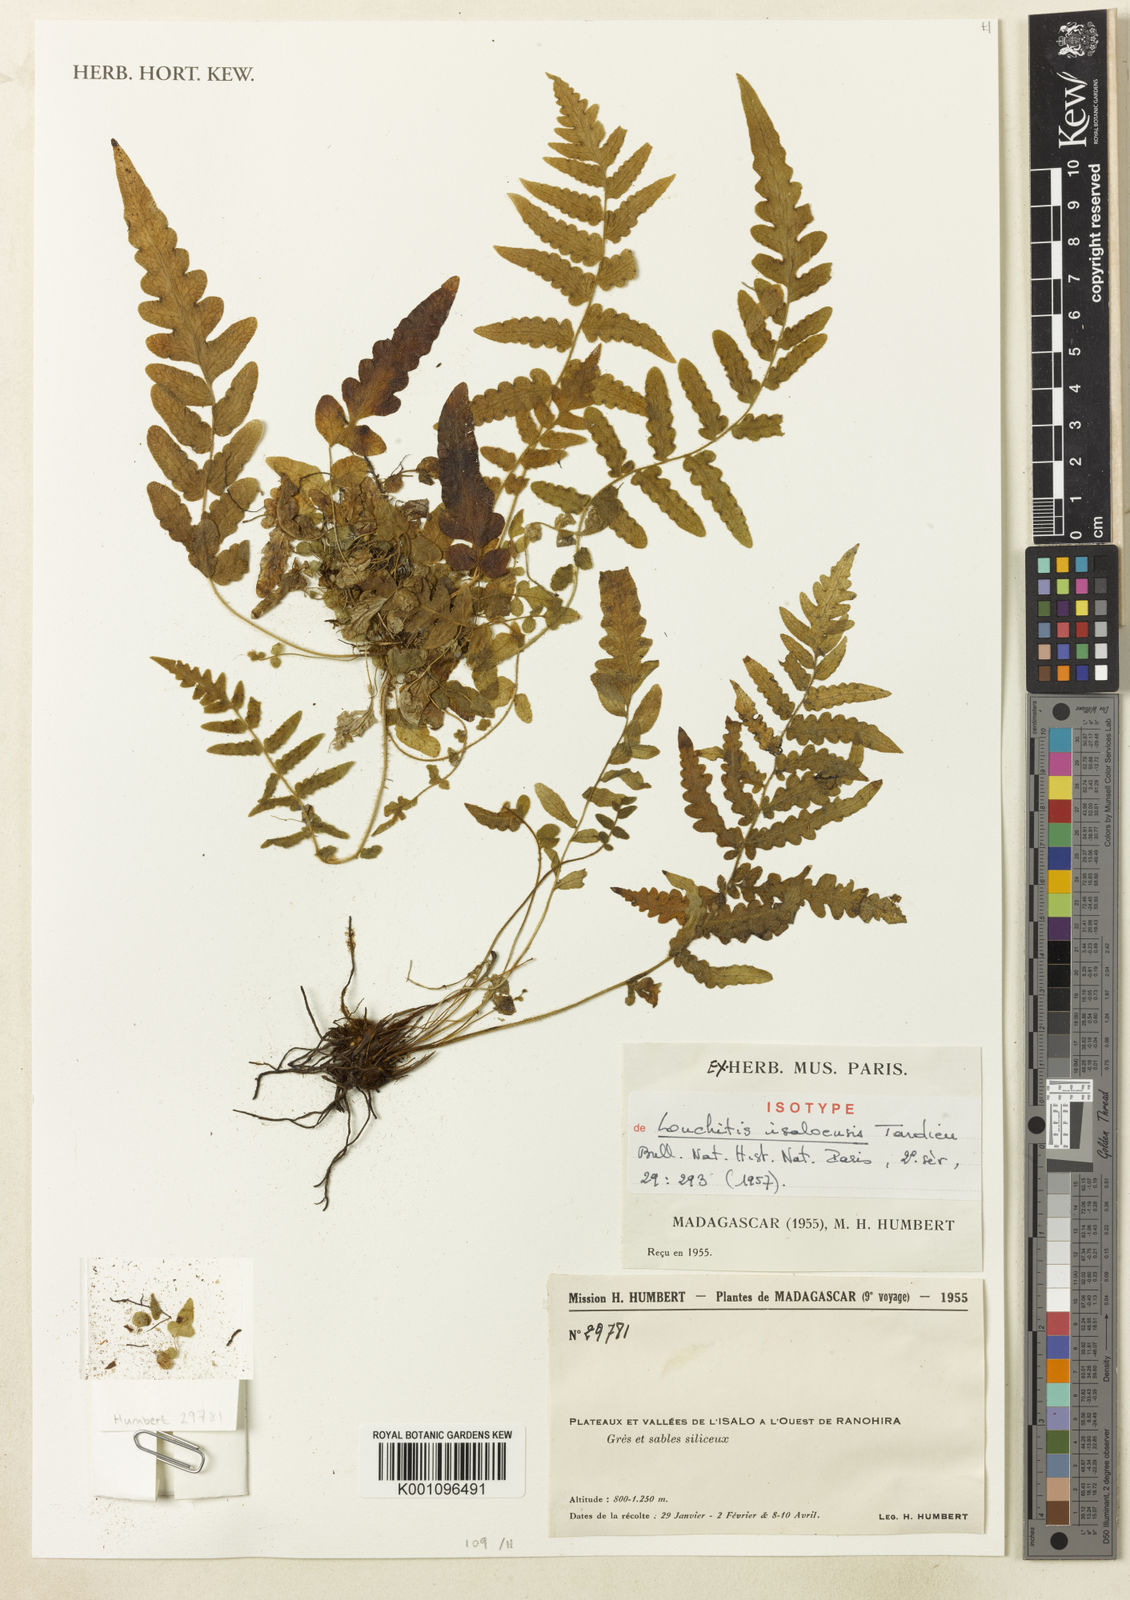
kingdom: Plantae
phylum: Tracheophyta
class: Polypodiopsida
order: Polypodiales
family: Dennstaedtiaceae
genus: Blotiella
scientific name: Blotiella isaloensis
